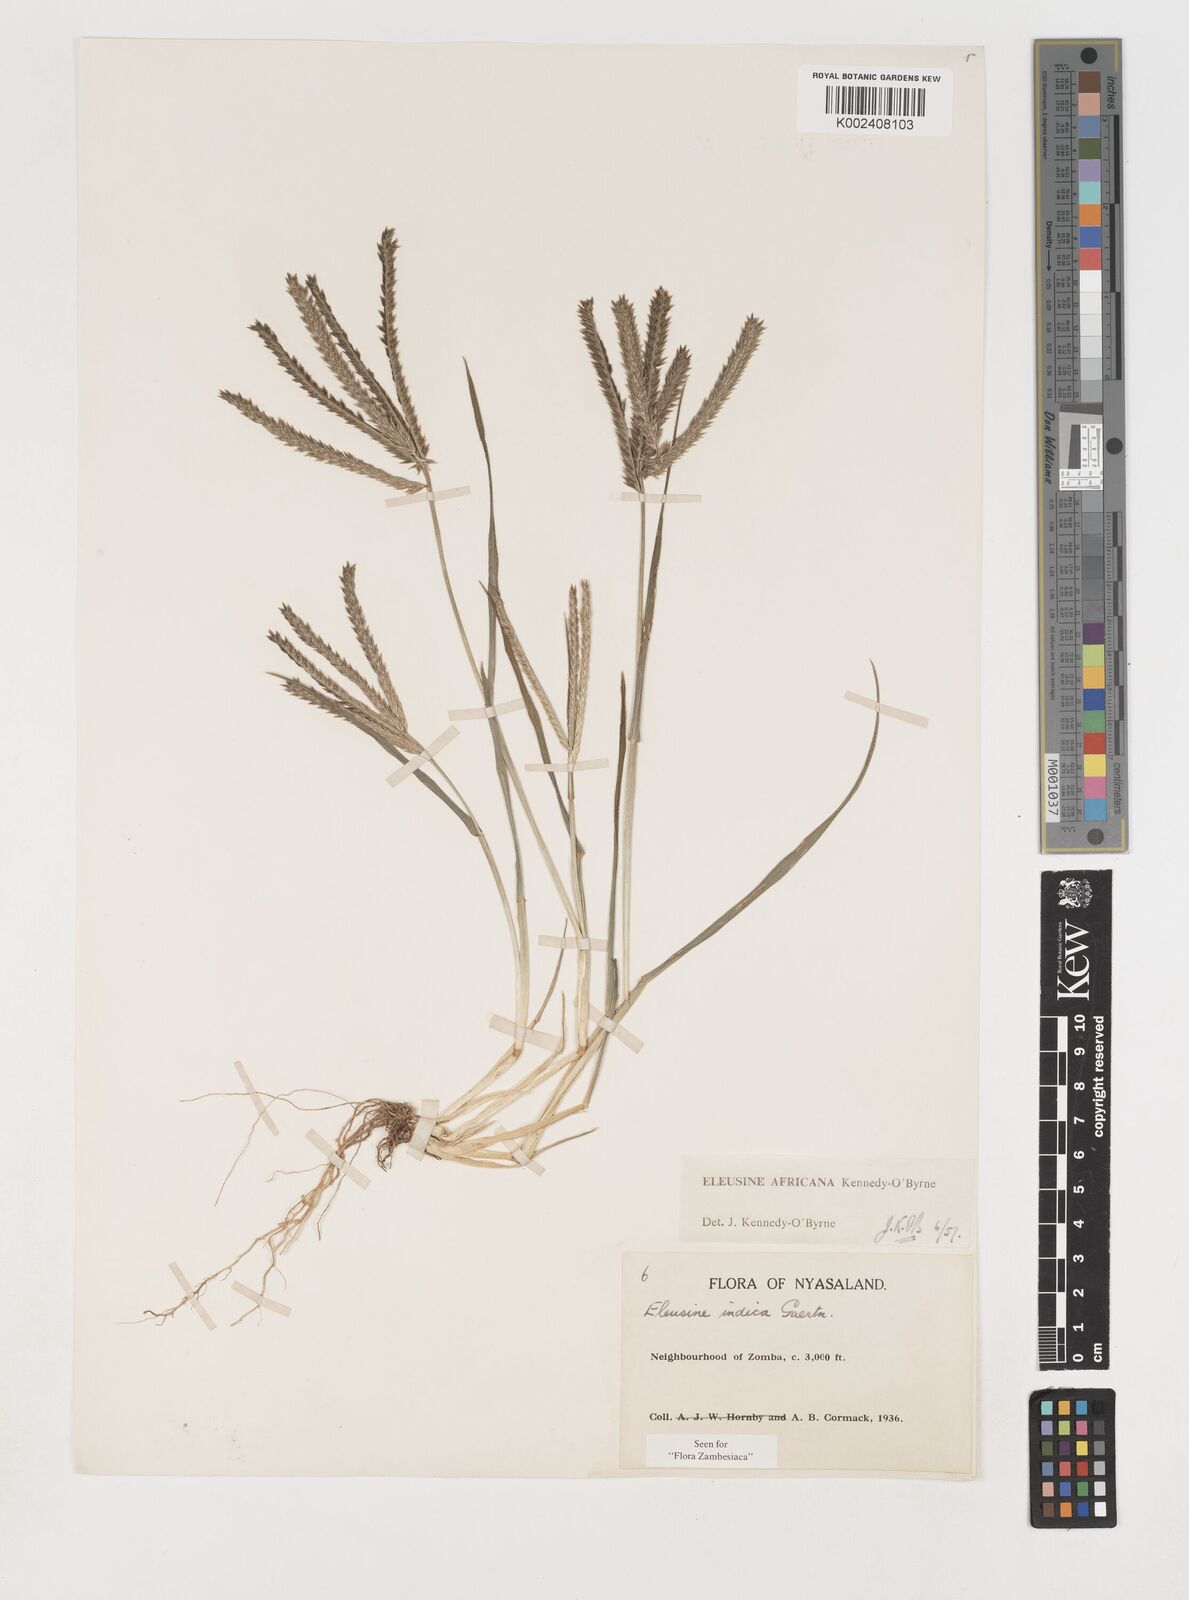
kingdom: Plantae
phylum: Tracheophyta
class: Liliopsida
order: Poales
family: Poaceae
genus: Eleusine
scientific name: Eleusine africana
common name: Wild african finger millet
